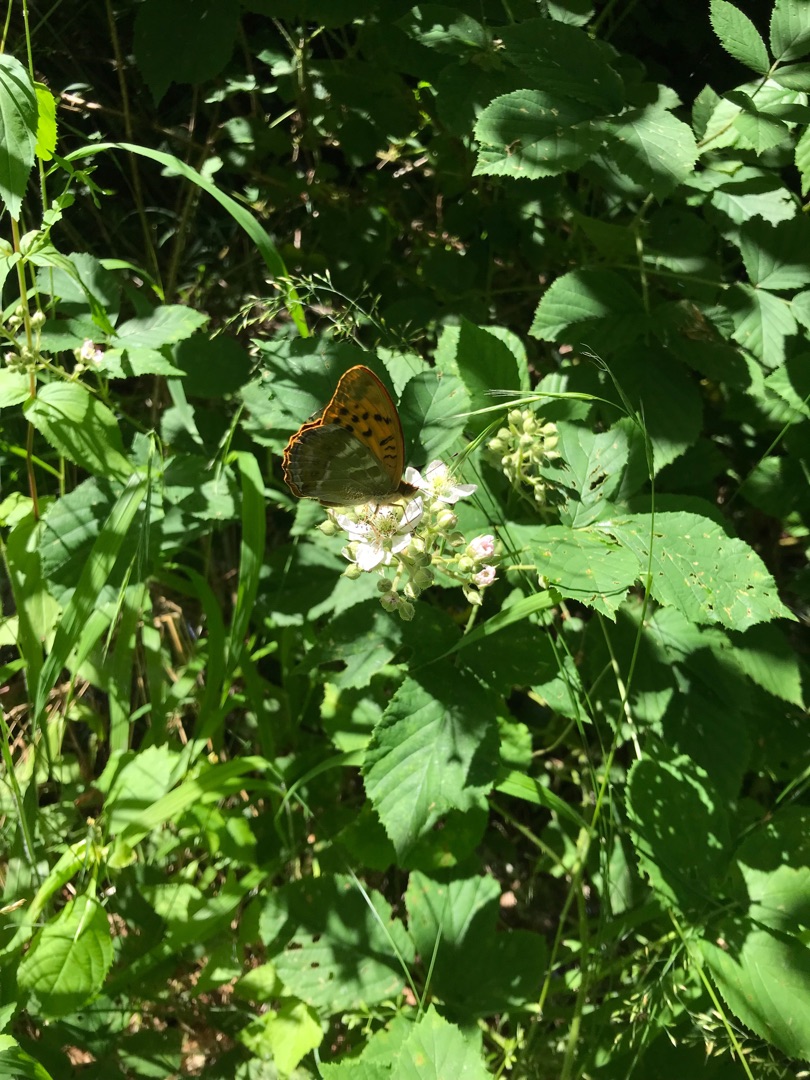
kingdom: Animalia
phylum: Arthropoda
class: Insecta
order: Lepidoptera
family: Nymphalidae
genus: Argynnis
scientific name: Argynnis paphia
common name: Kejserkåbe
